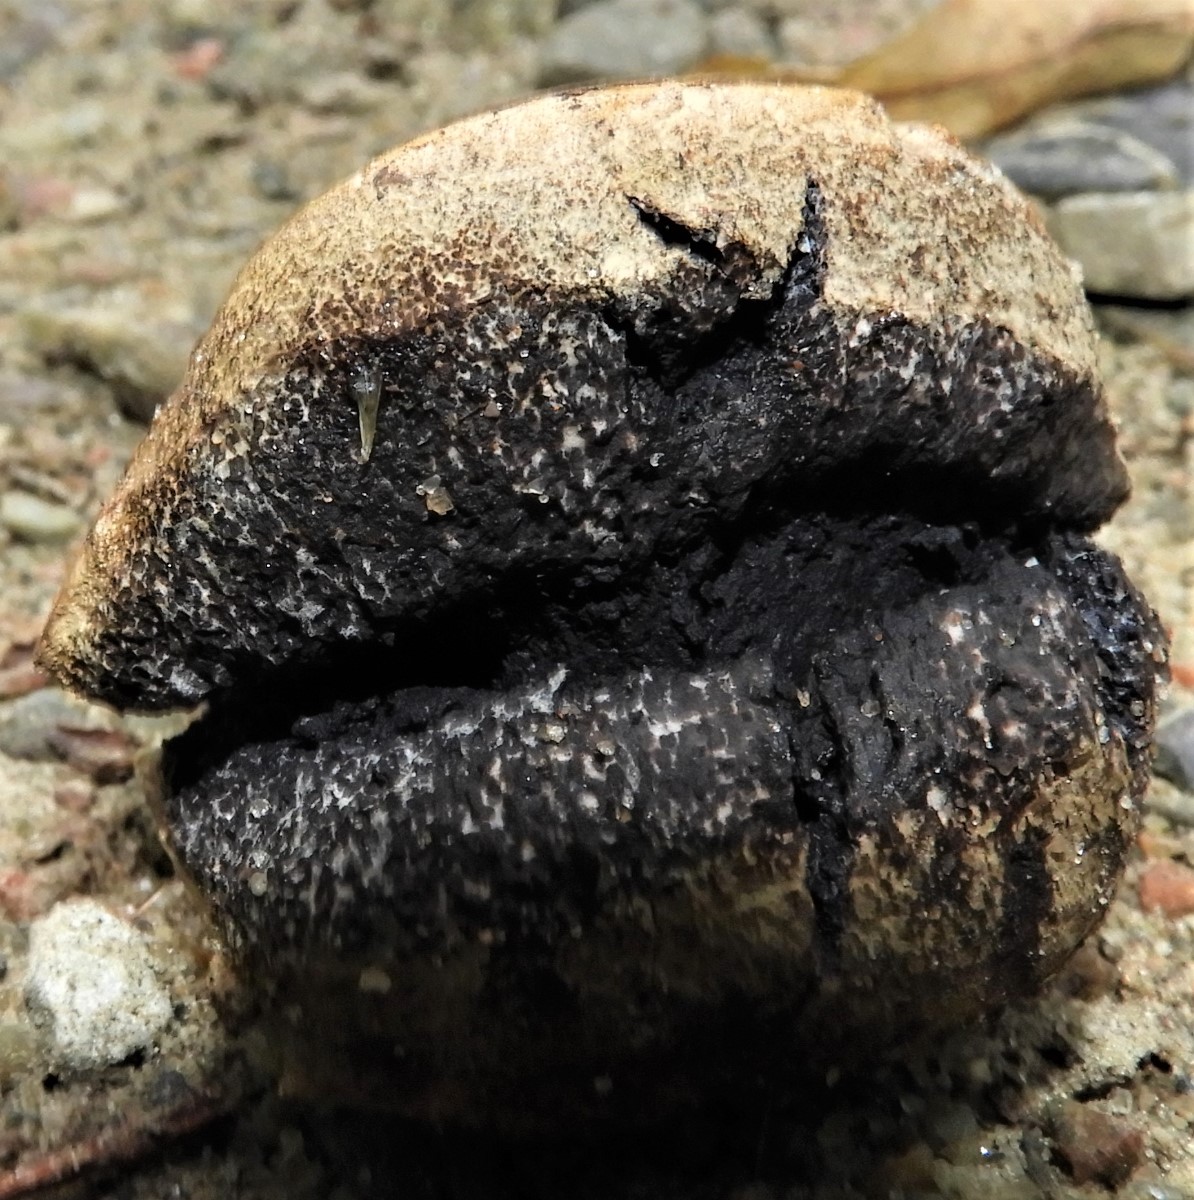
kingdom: Fungi
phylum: Basidiomycota
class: Agaricomycetes
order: Boletales
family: Sclerodermataceae
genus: Scleroderma
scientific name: Scleroderma
